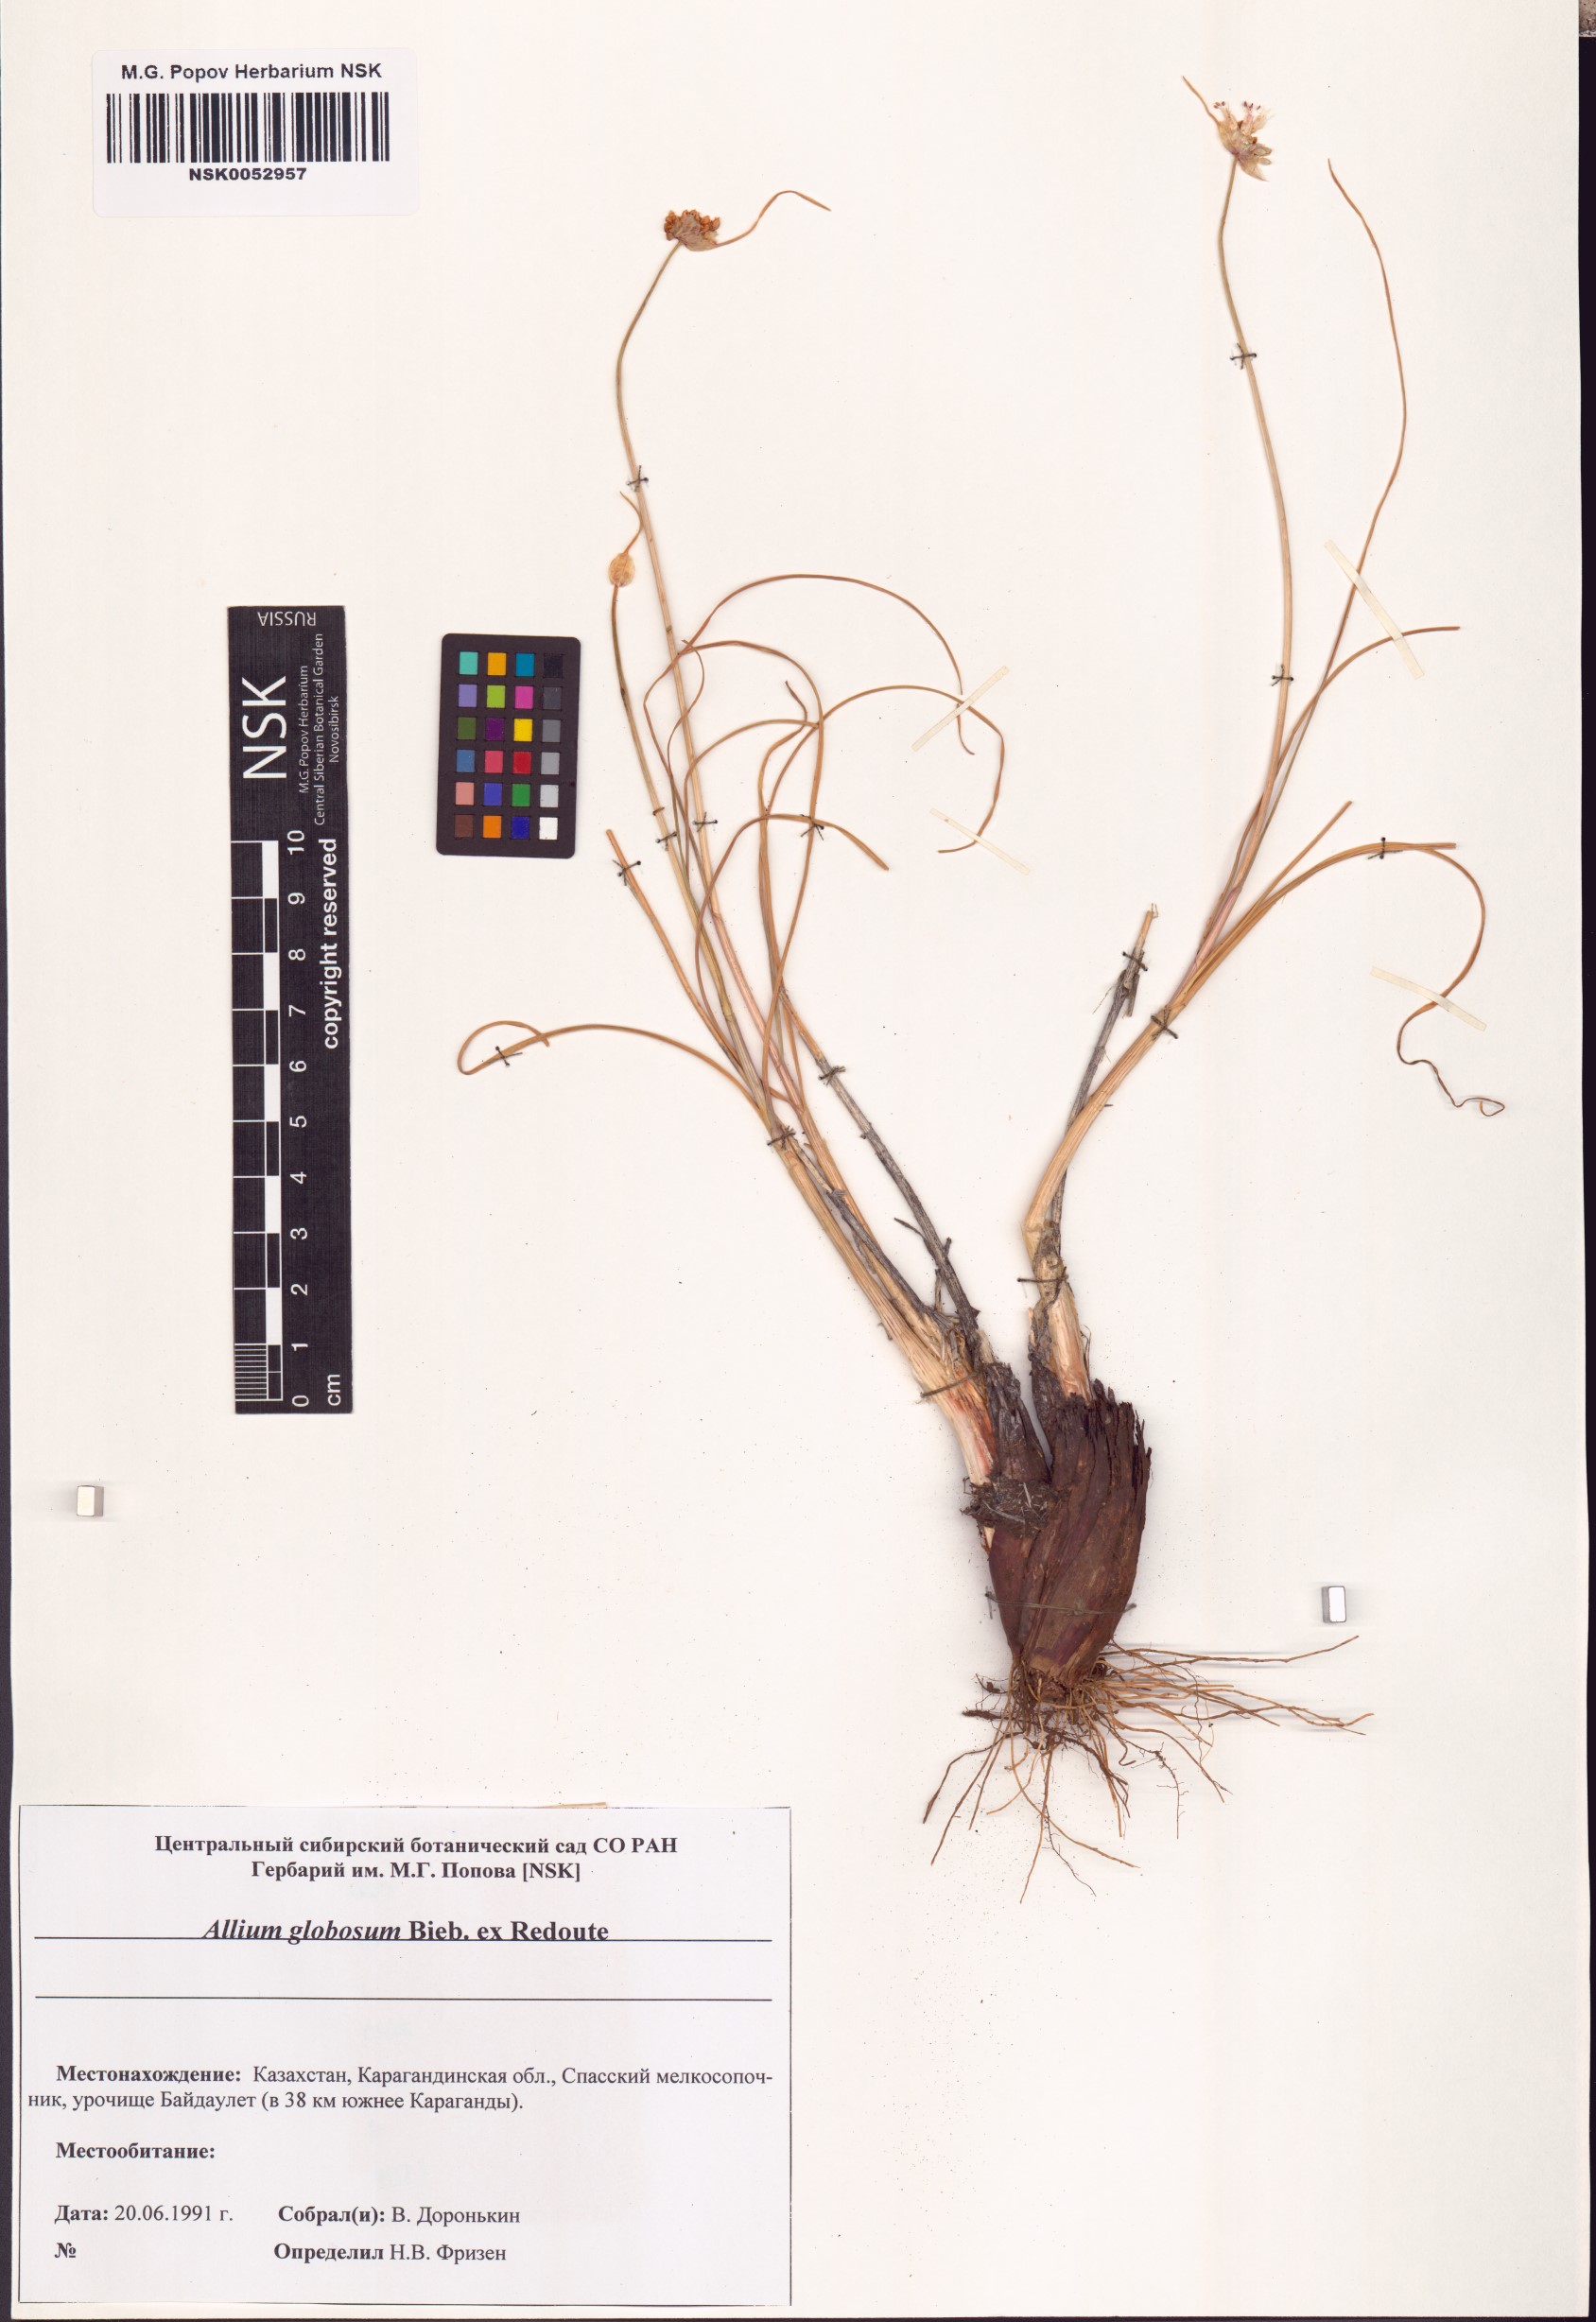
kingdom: Plantae
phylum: Tracheophyta
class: Liliopsida
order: Asparagales
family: Amaryllidaceae
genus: Allium
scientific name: Allium saxatile
